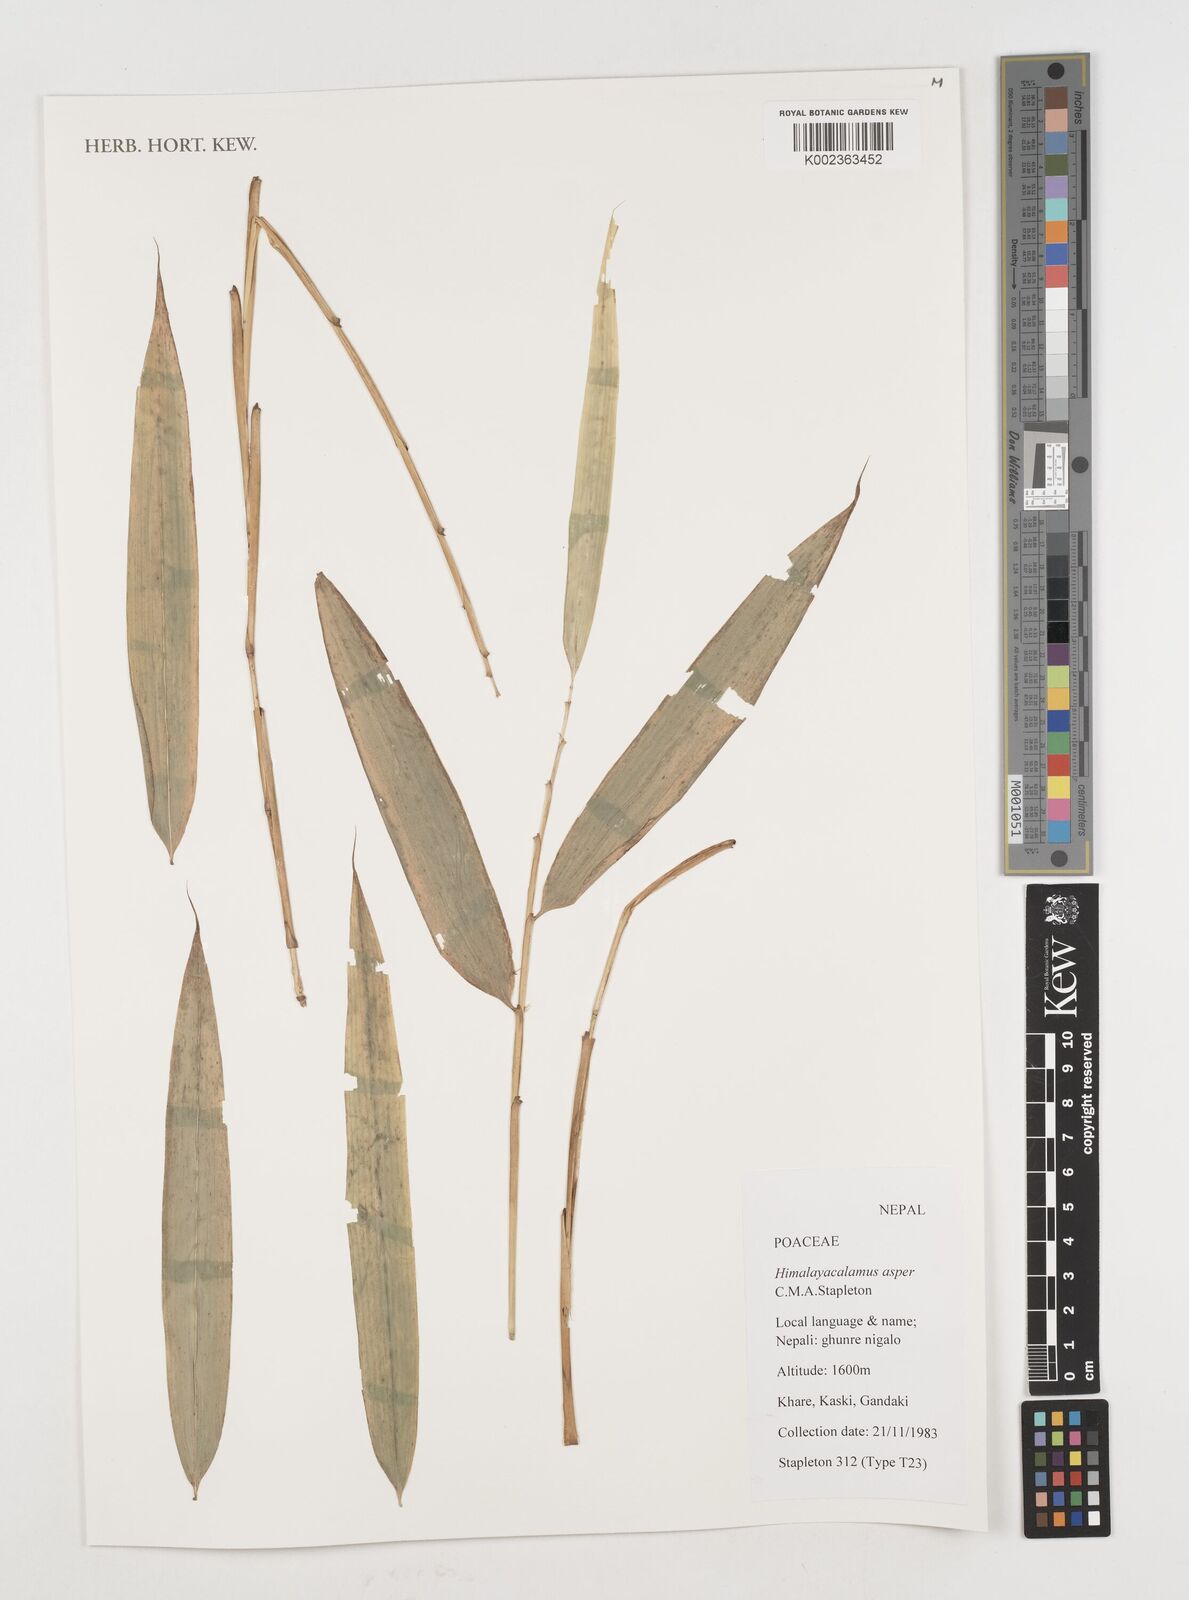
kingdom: Plantae
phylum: Tracheophyta
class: Liliopsida
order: Poales
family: Poaceae
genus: Himalayacalamus
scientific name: Himalayacalamus asper
